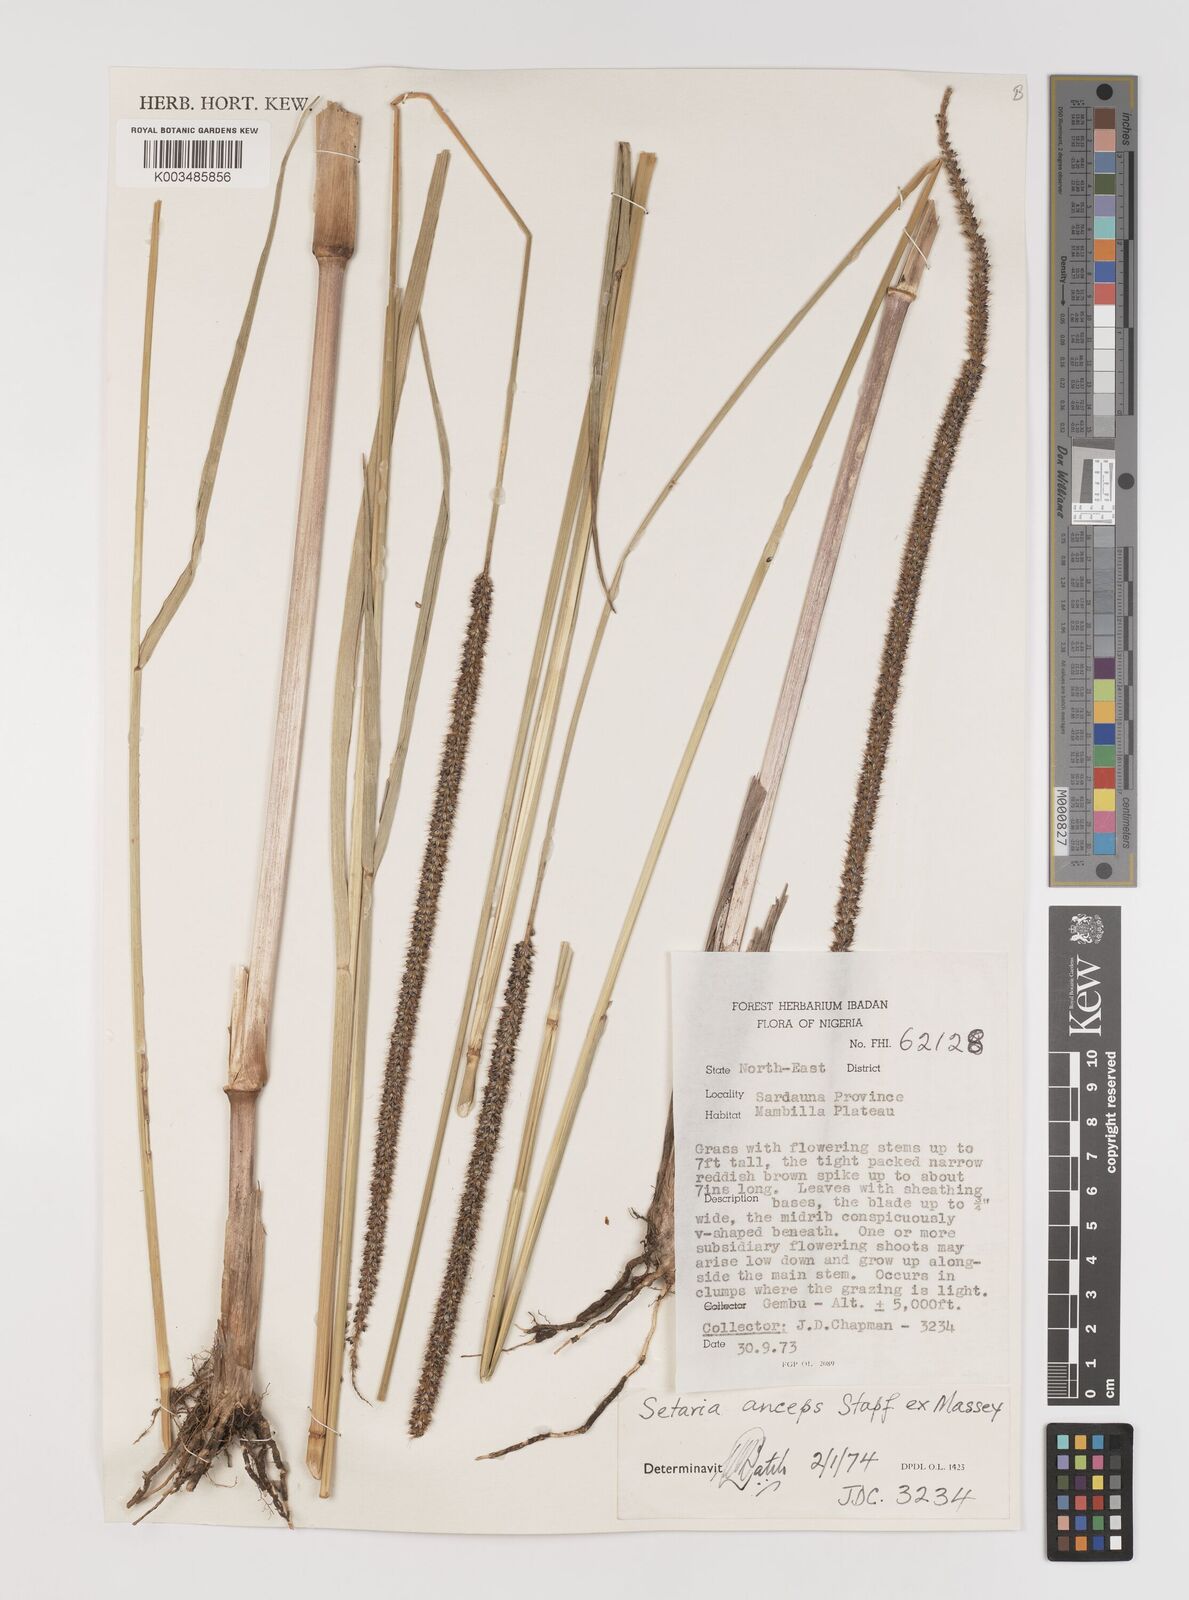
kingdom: Plantae
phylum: Tracheophyta
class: Liliopsida
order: Poales
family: Poaceae
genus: Setaria
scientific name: Setaria sphacelata
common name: African bristlegrass
